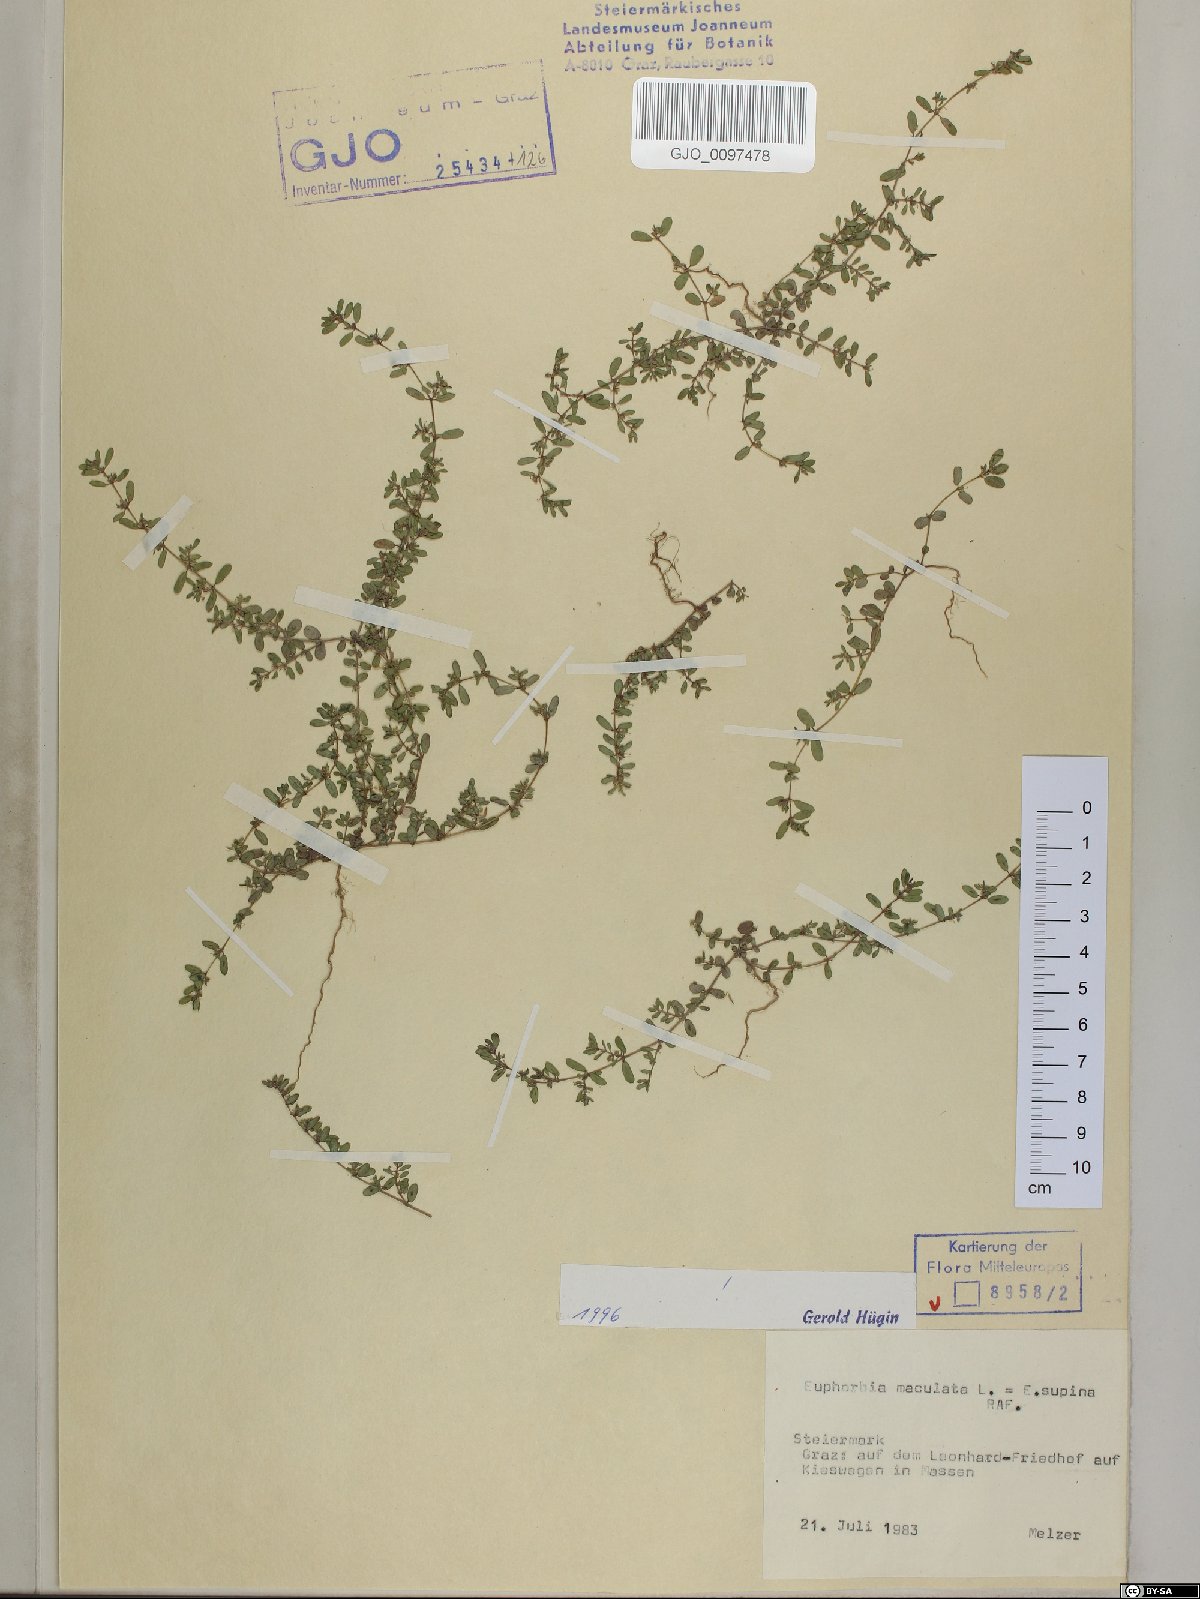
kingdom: Plantae
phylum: Tracheophyta
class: Magnoliopsida
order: Malpighiales
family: Euphorbiaceae
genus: Euphorbia
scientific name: Euphorbia maculata
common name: Spotted spurge
